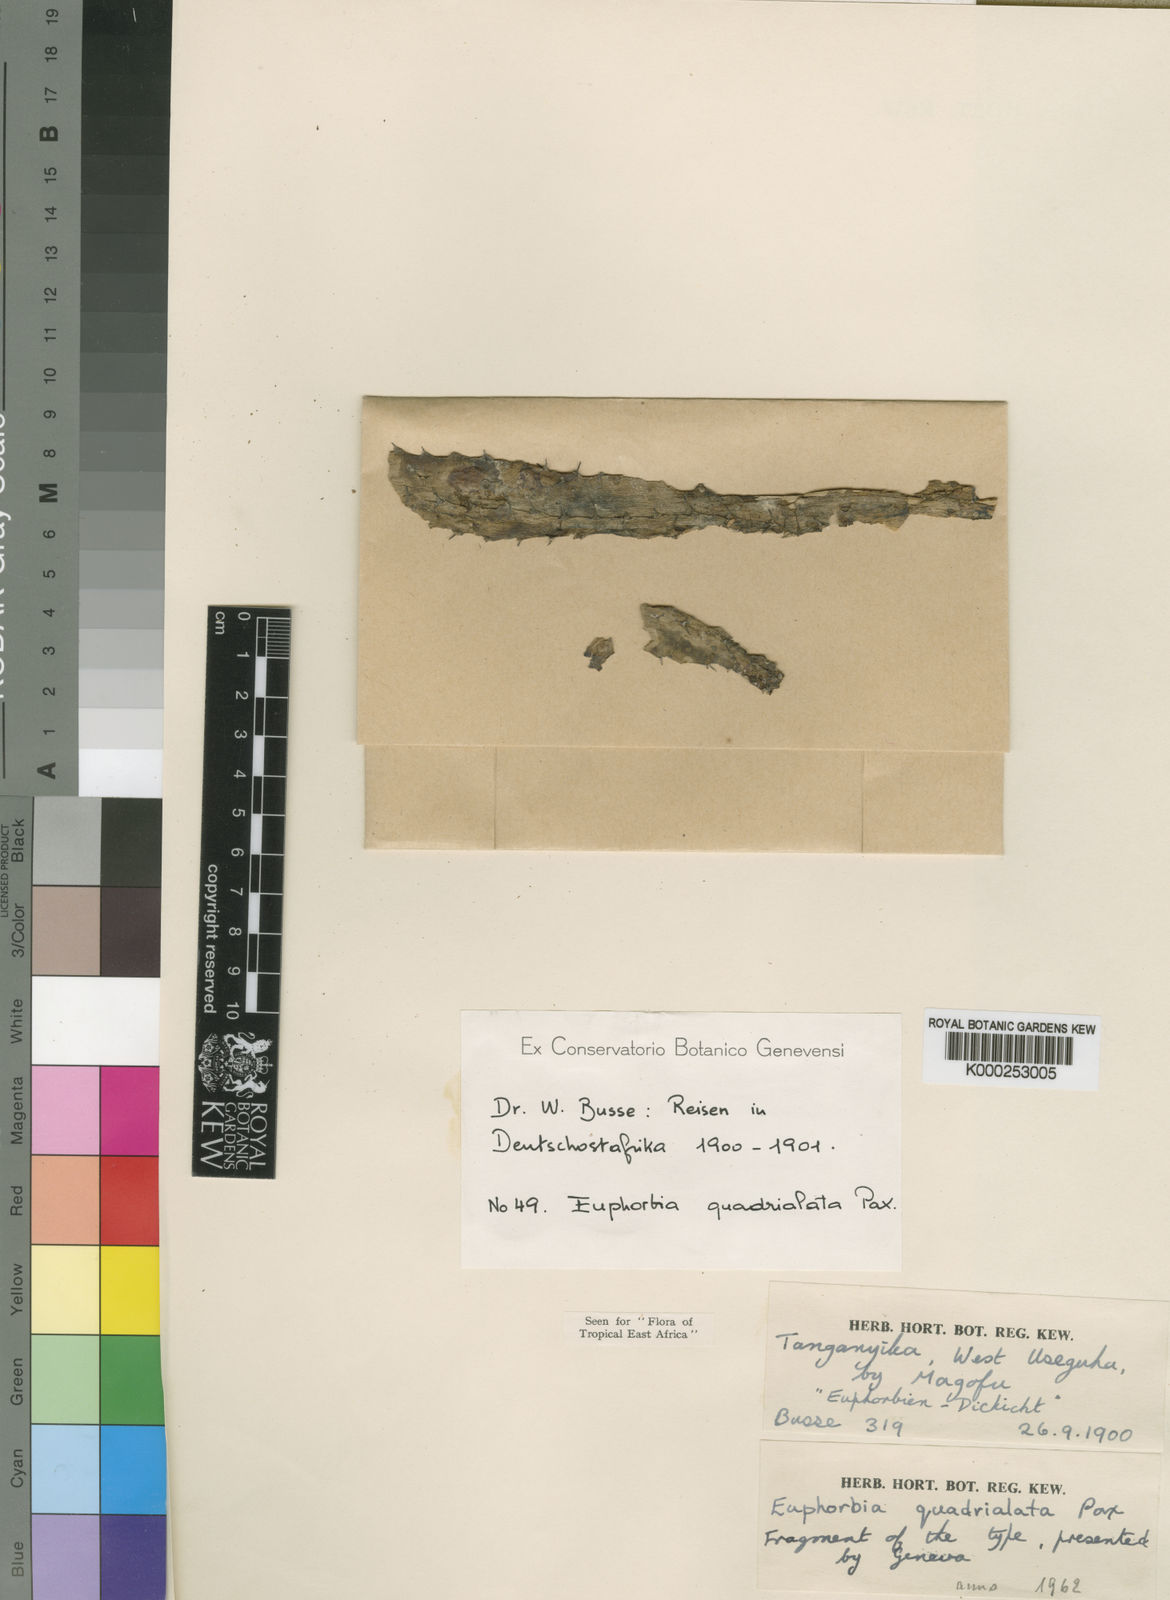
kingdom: Plantae
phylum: Tracheophyta
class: Magnoliopsida
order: Malpighiales
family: Euphorbiaceae
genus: Euphorbia
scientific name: Euphorbia quadrialata
